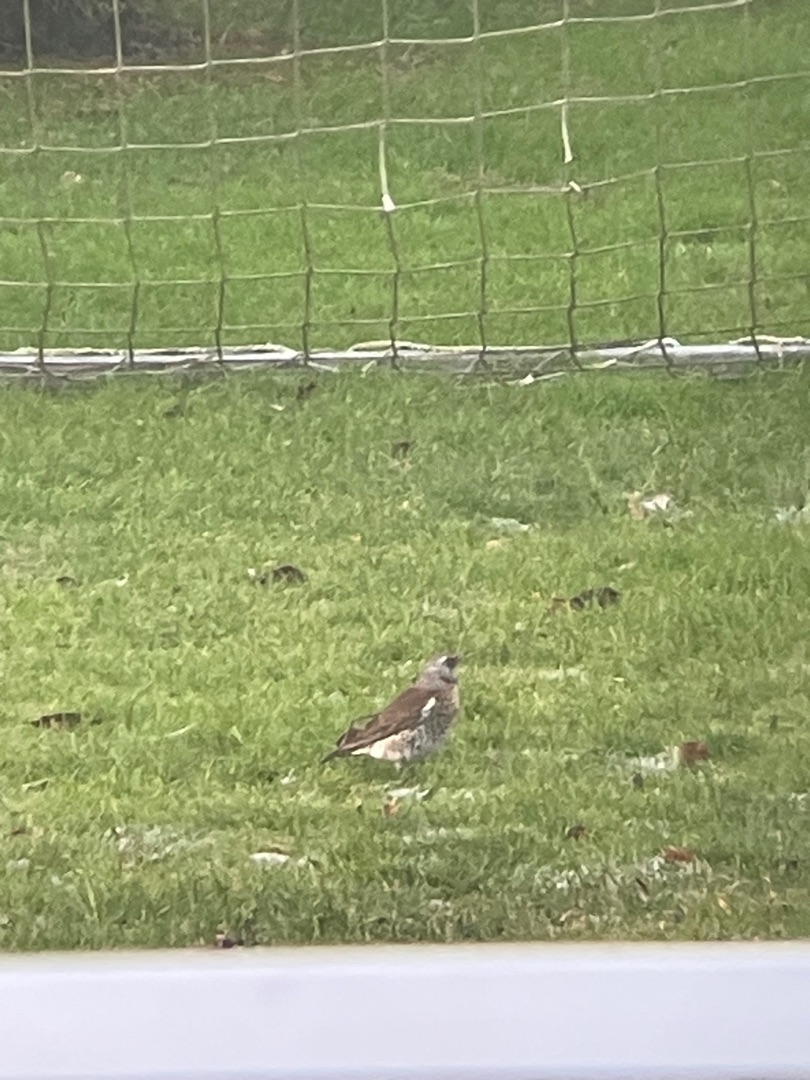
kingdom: Animalia
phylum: Chordata
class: Aves
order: Passeriformes
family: Turdidae
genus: Turdus
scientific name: Turdus pilaris
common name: Sjagger
